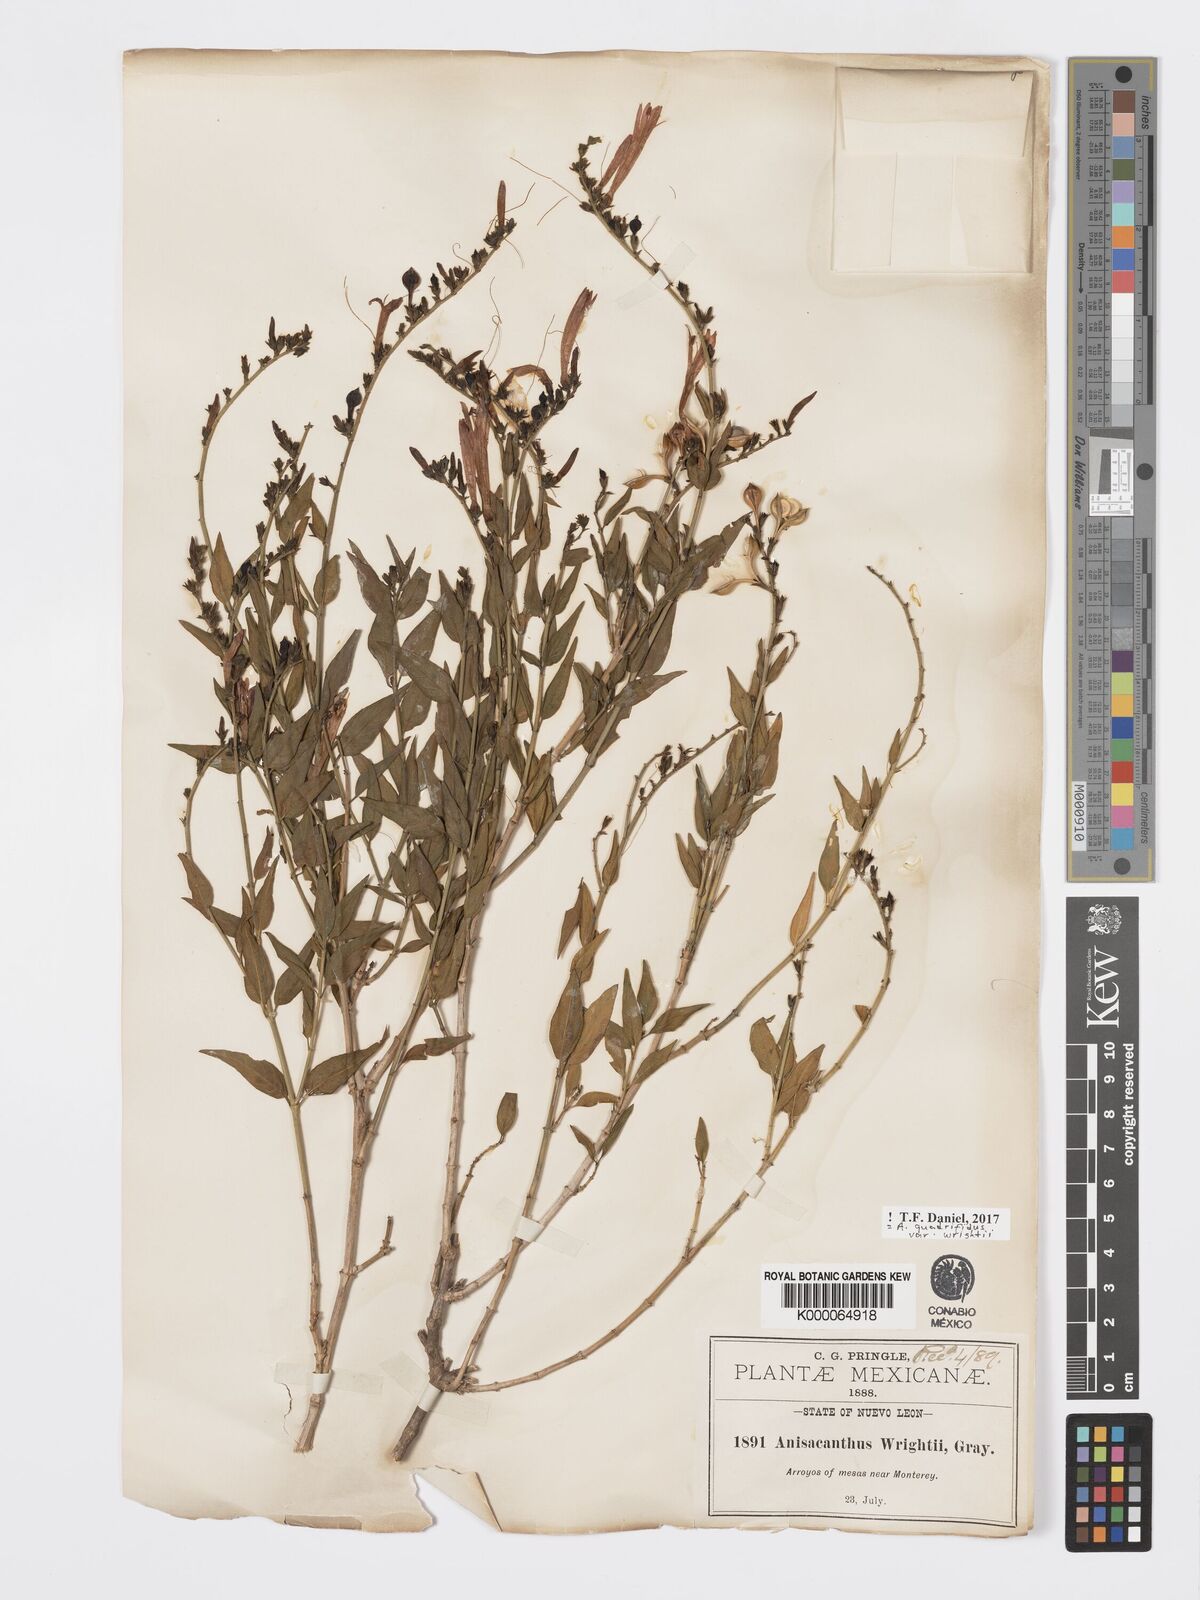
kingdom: Plantae
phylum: Tracheophyta
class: Magnoliopsida
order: Lamiales
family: Acanthaceae
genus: Anisacanthus
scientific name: Anisacanthus quadrifidus
